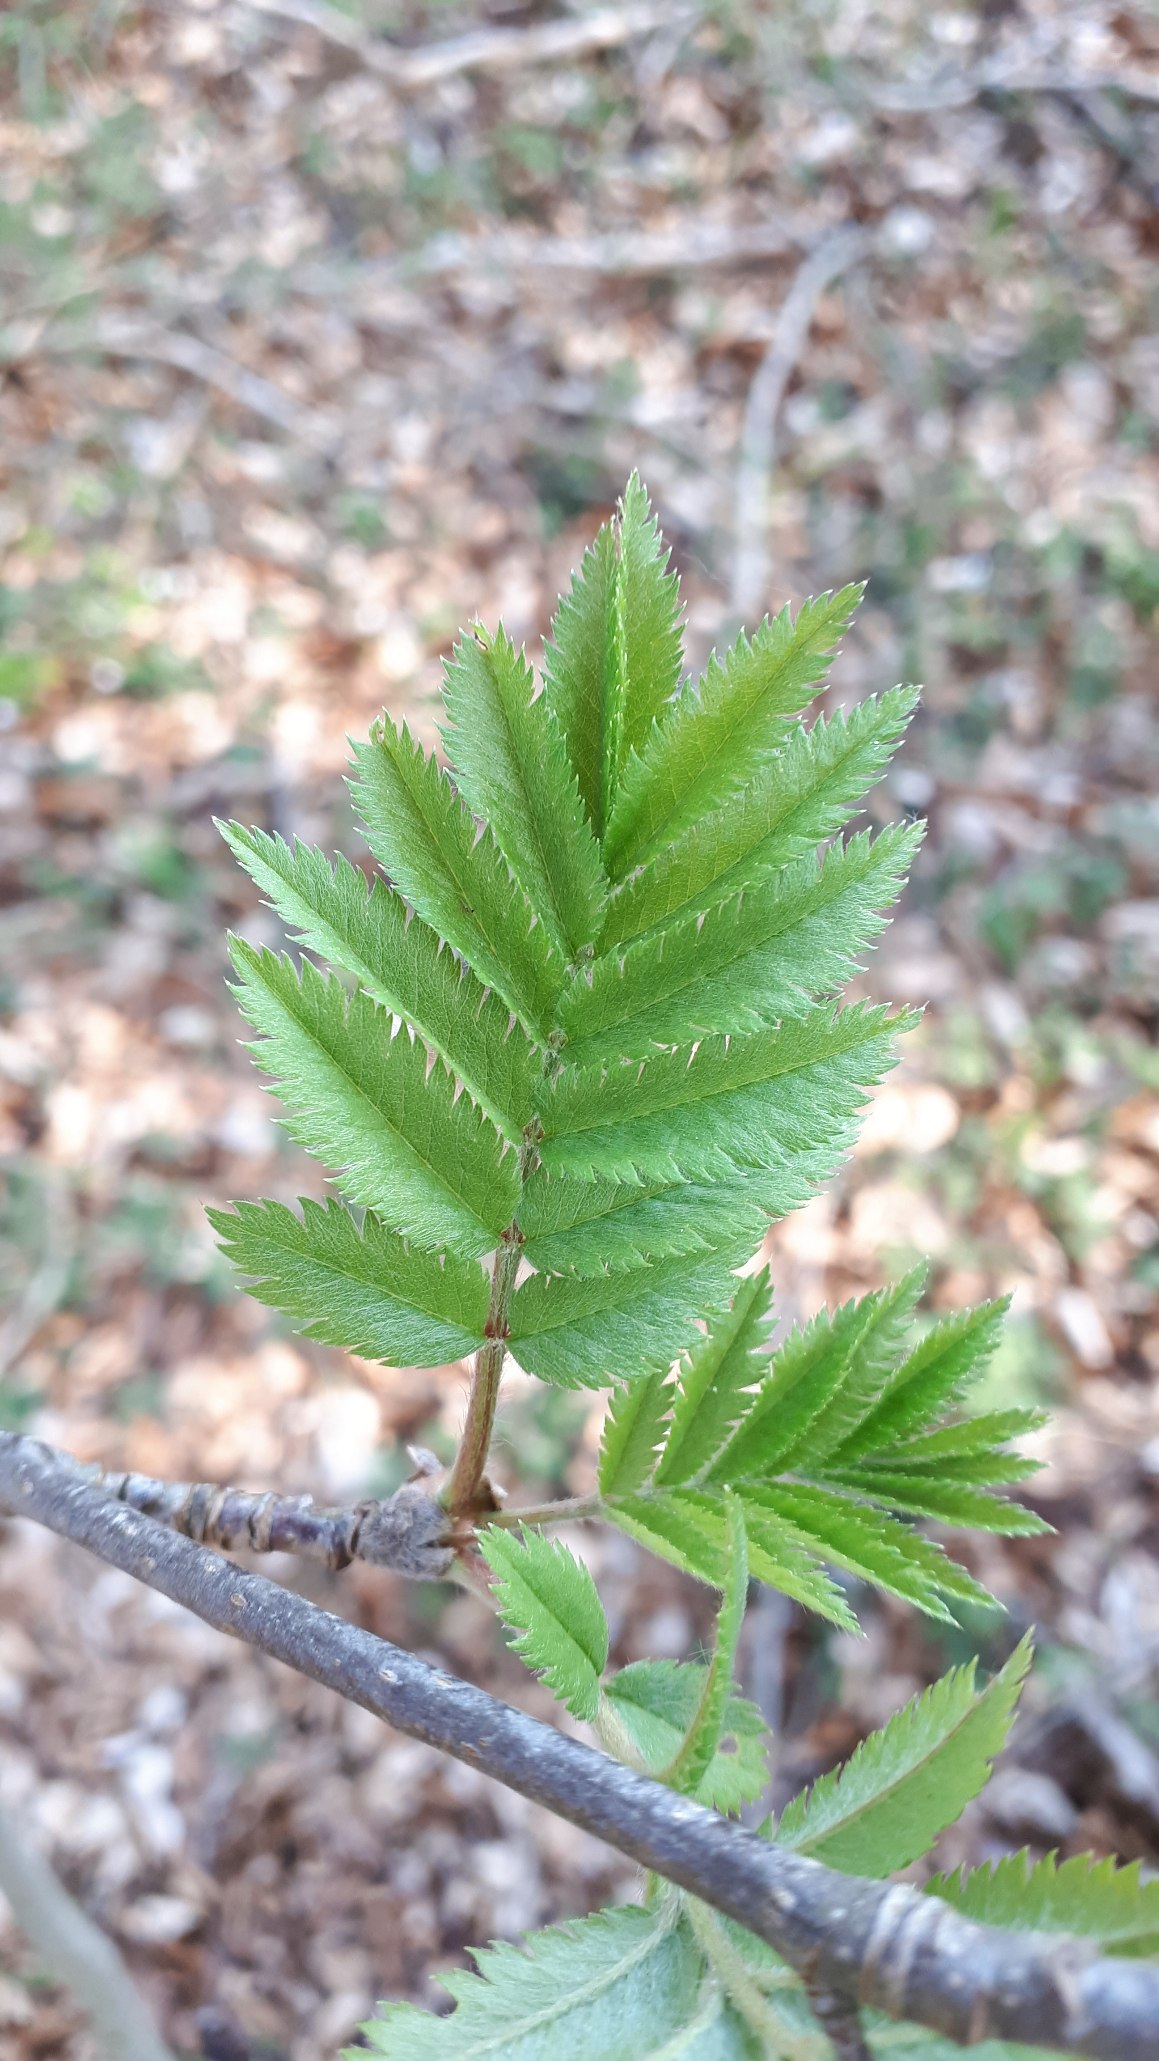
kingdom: Plantae
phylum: Tracheophyta
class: Magnoliopsida
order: Rosales
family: Rosaceae
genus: Sorbus
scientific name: Sorbus aucuparia
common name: Almindelig røn
